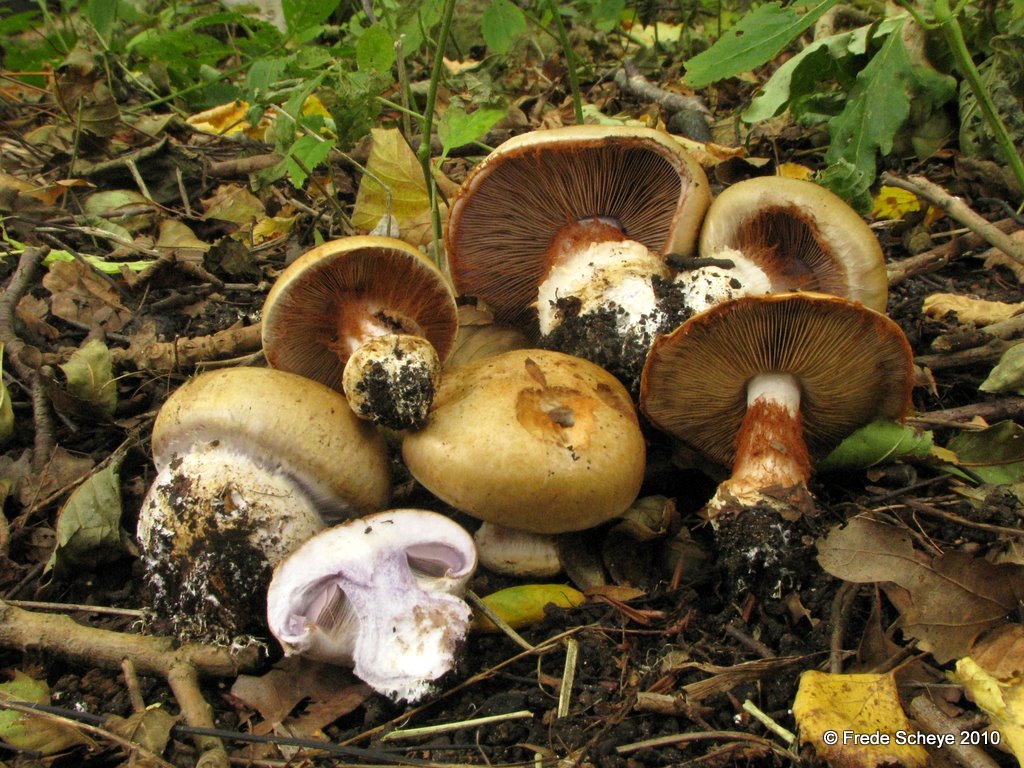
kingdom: Fungi
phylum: Basidiomycota
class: Agaricomycetes
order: Agaricales
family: Cortinariaceae
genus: Cortinarius
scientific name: Cortinarius anserinus
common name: bøge-slørhat
